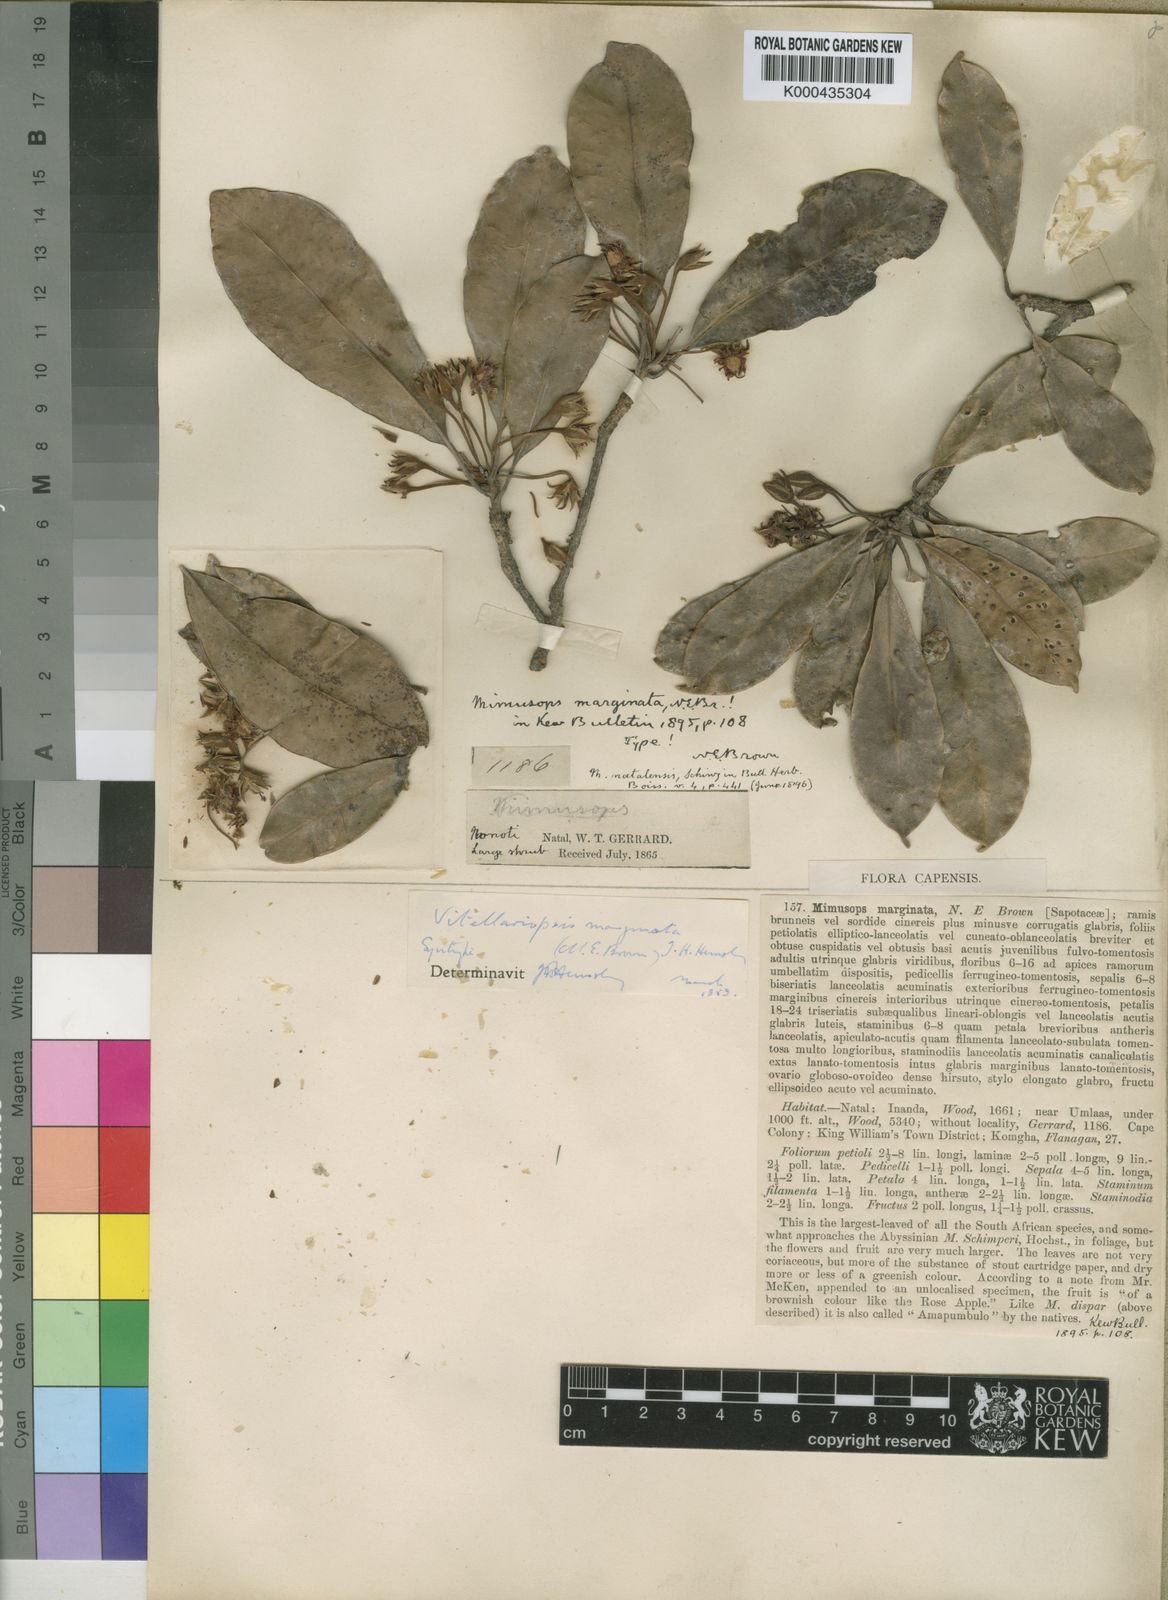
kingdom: Plantae
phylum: Tracheophyta
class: Magnoliopsida
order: Ericales
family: Sapotaceae
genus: Vitellariopsis
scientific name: Vitellariopsis marginata
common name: Flatcap milkwood
